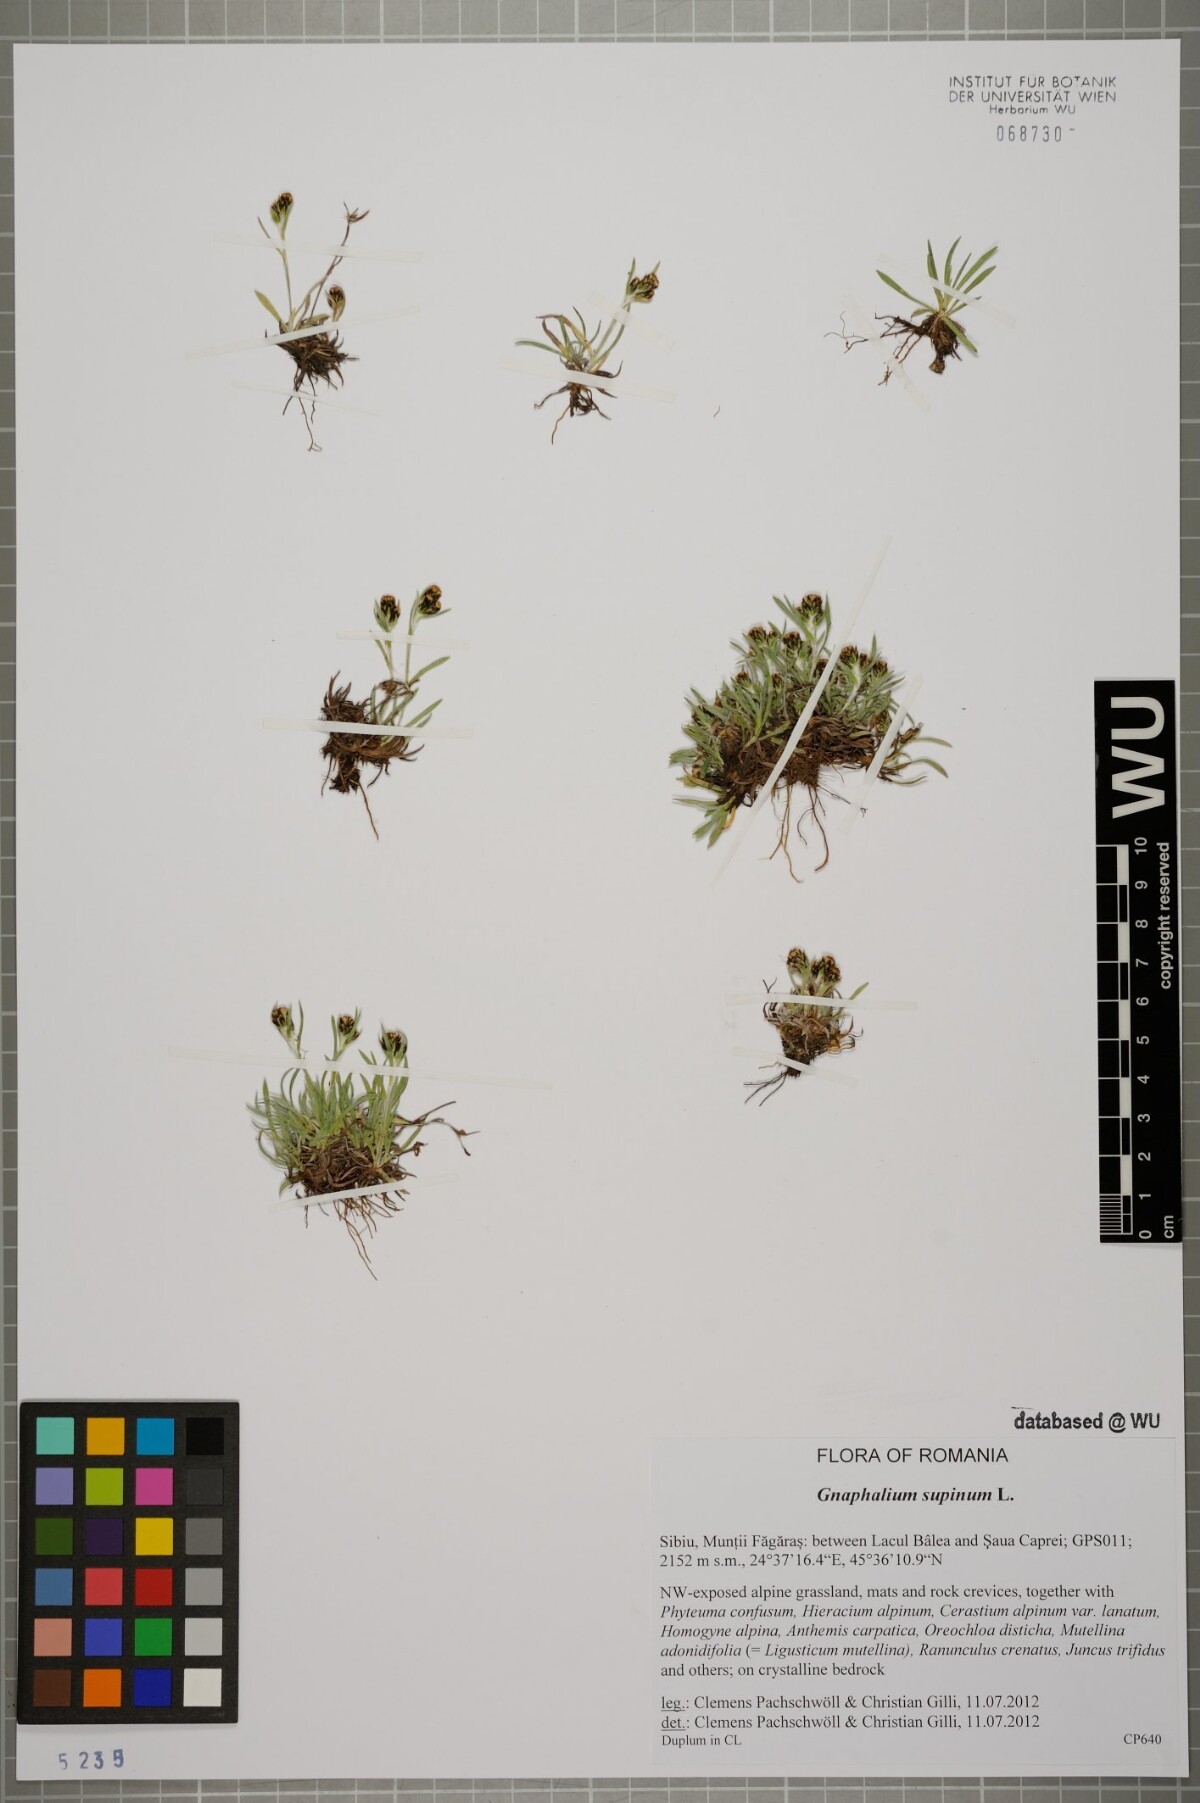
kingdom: Plantae
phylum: Tracheophyta
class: Magnoliopsida
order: Asterales
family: Asteraceae
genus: Omalotheca
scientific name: Omalotheca supina
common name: Alpine arctic-cudweed
